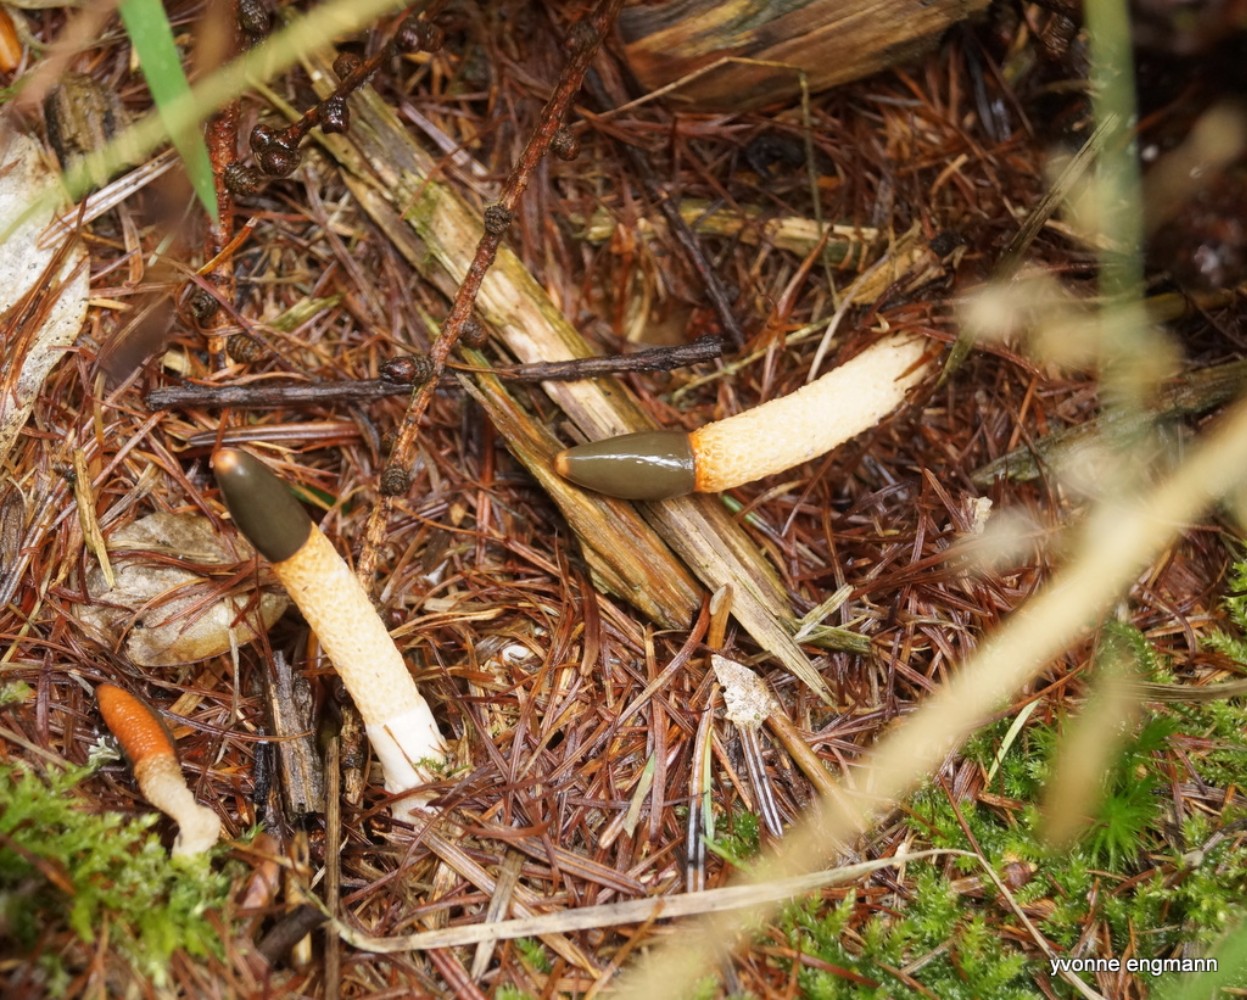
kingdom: Fungi
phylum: Basidiomycota
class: Agaricomycetes
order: Phallales
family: Phallaceae
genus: Mutinus
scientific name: Mutinus caninus
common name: hunde-stinksvamp
